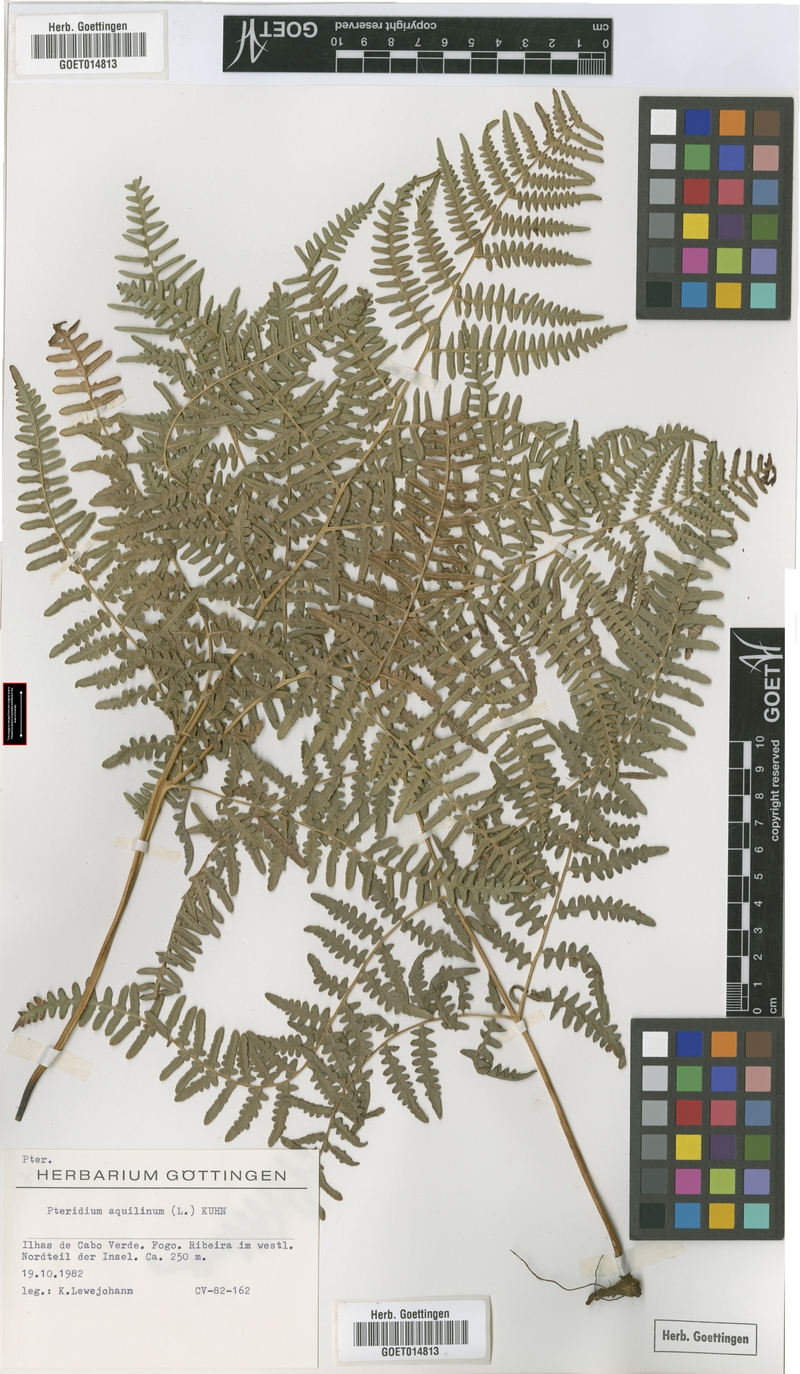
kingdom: Plantae
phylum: Tracheophyta
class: Polypodiopsida
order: Polypodiales
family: Dennstaedtiaceae
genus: Pteridium
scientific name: Pteridium aquilinum
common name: Bracken
